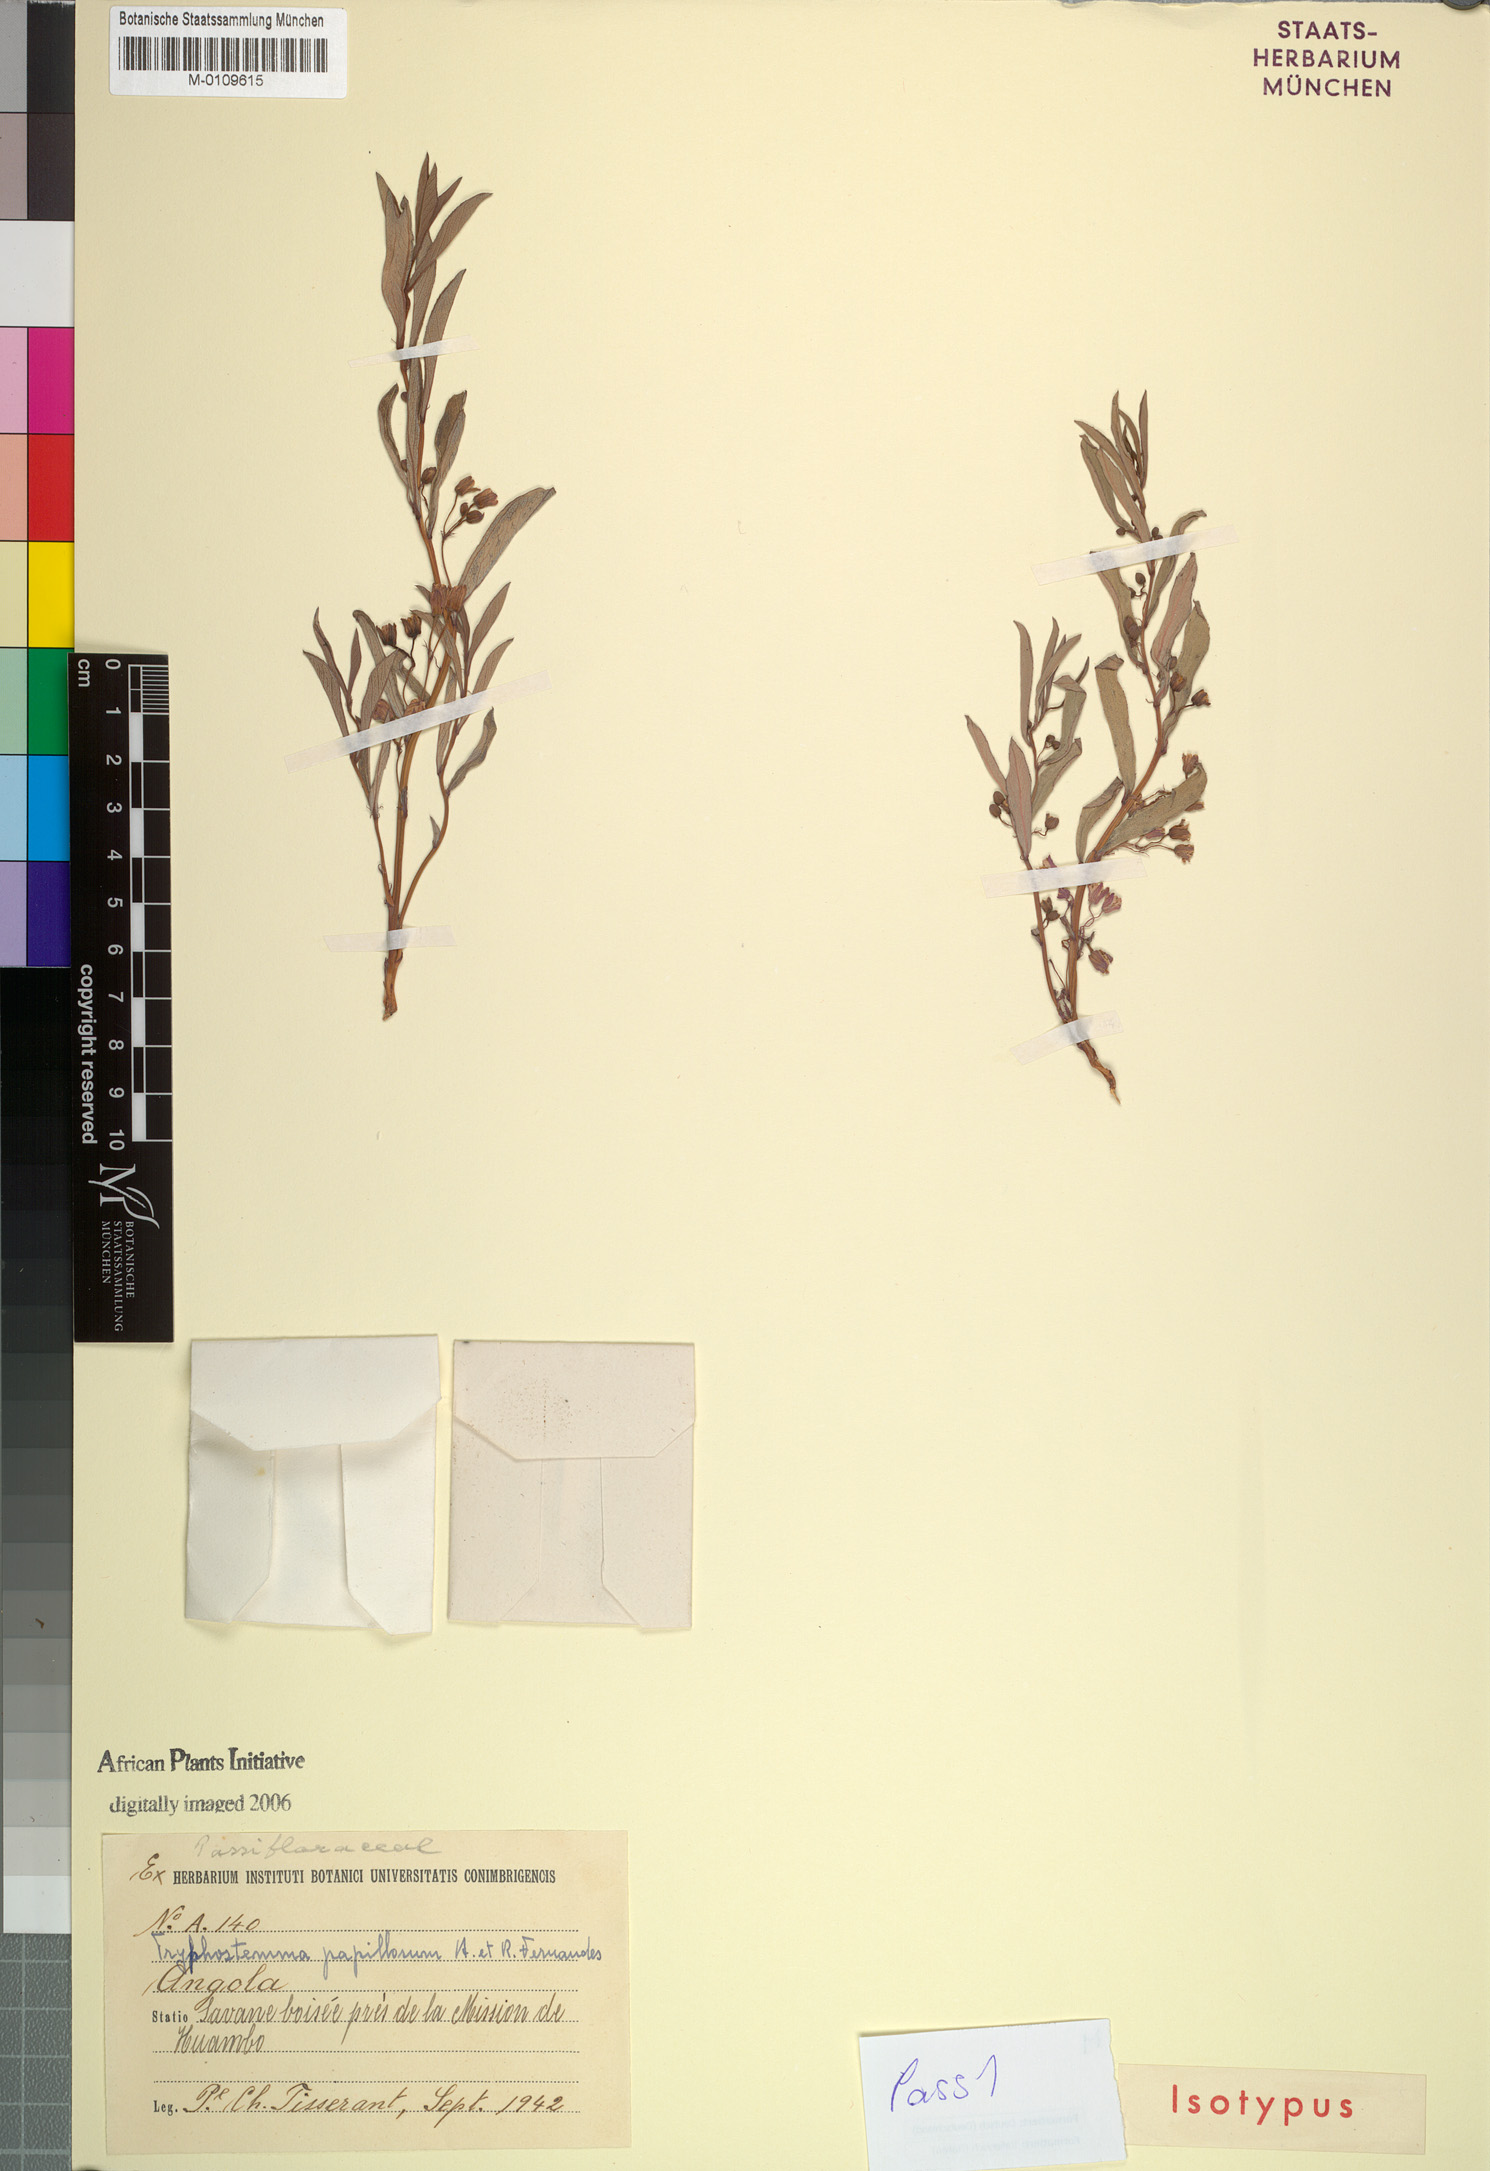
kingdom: Plantae
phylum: Tracheophyta
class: Magnoliopsida
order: Malpighiales
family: Passifloraceae
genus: Basananthe
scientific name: Basananthe papillosa
